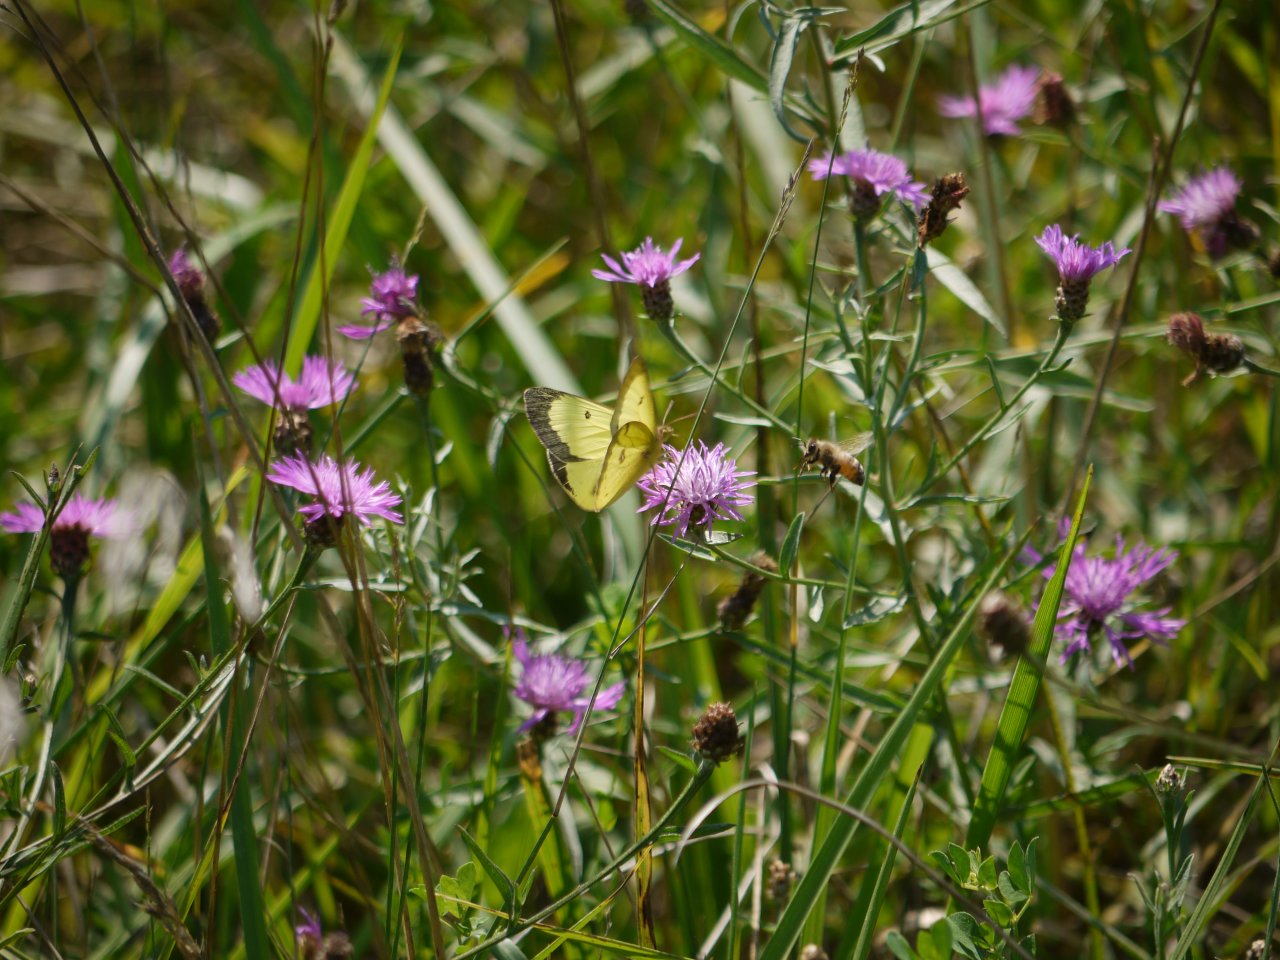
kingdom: Animalia
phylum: Arthropoda
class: Insecta
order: Lepidoptera
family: Pieridae
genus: Colias
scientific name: Colias philodice
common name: Clouded Sulphur
